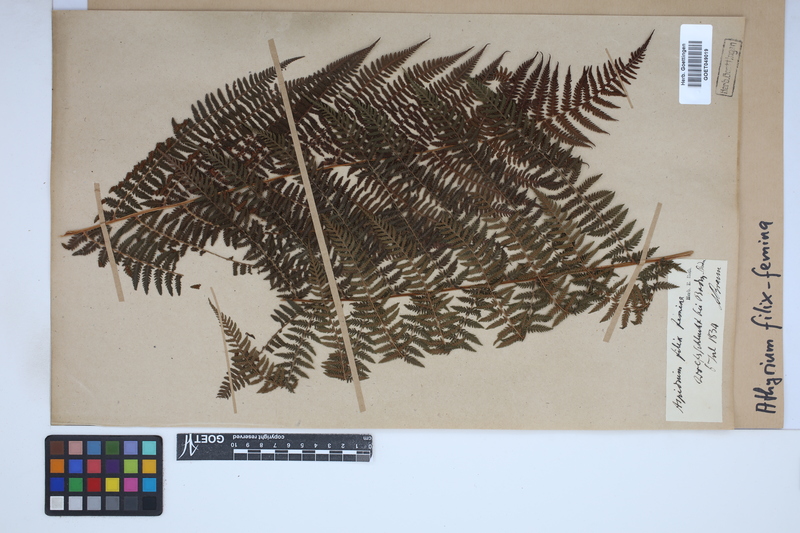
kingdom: Plantae
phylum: Tracheophyta
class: Polypodiopsida
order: Polypodiales
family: Athyriaceae
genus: Athyrium
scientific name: Athyrium filix-femina
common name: Lady fern
